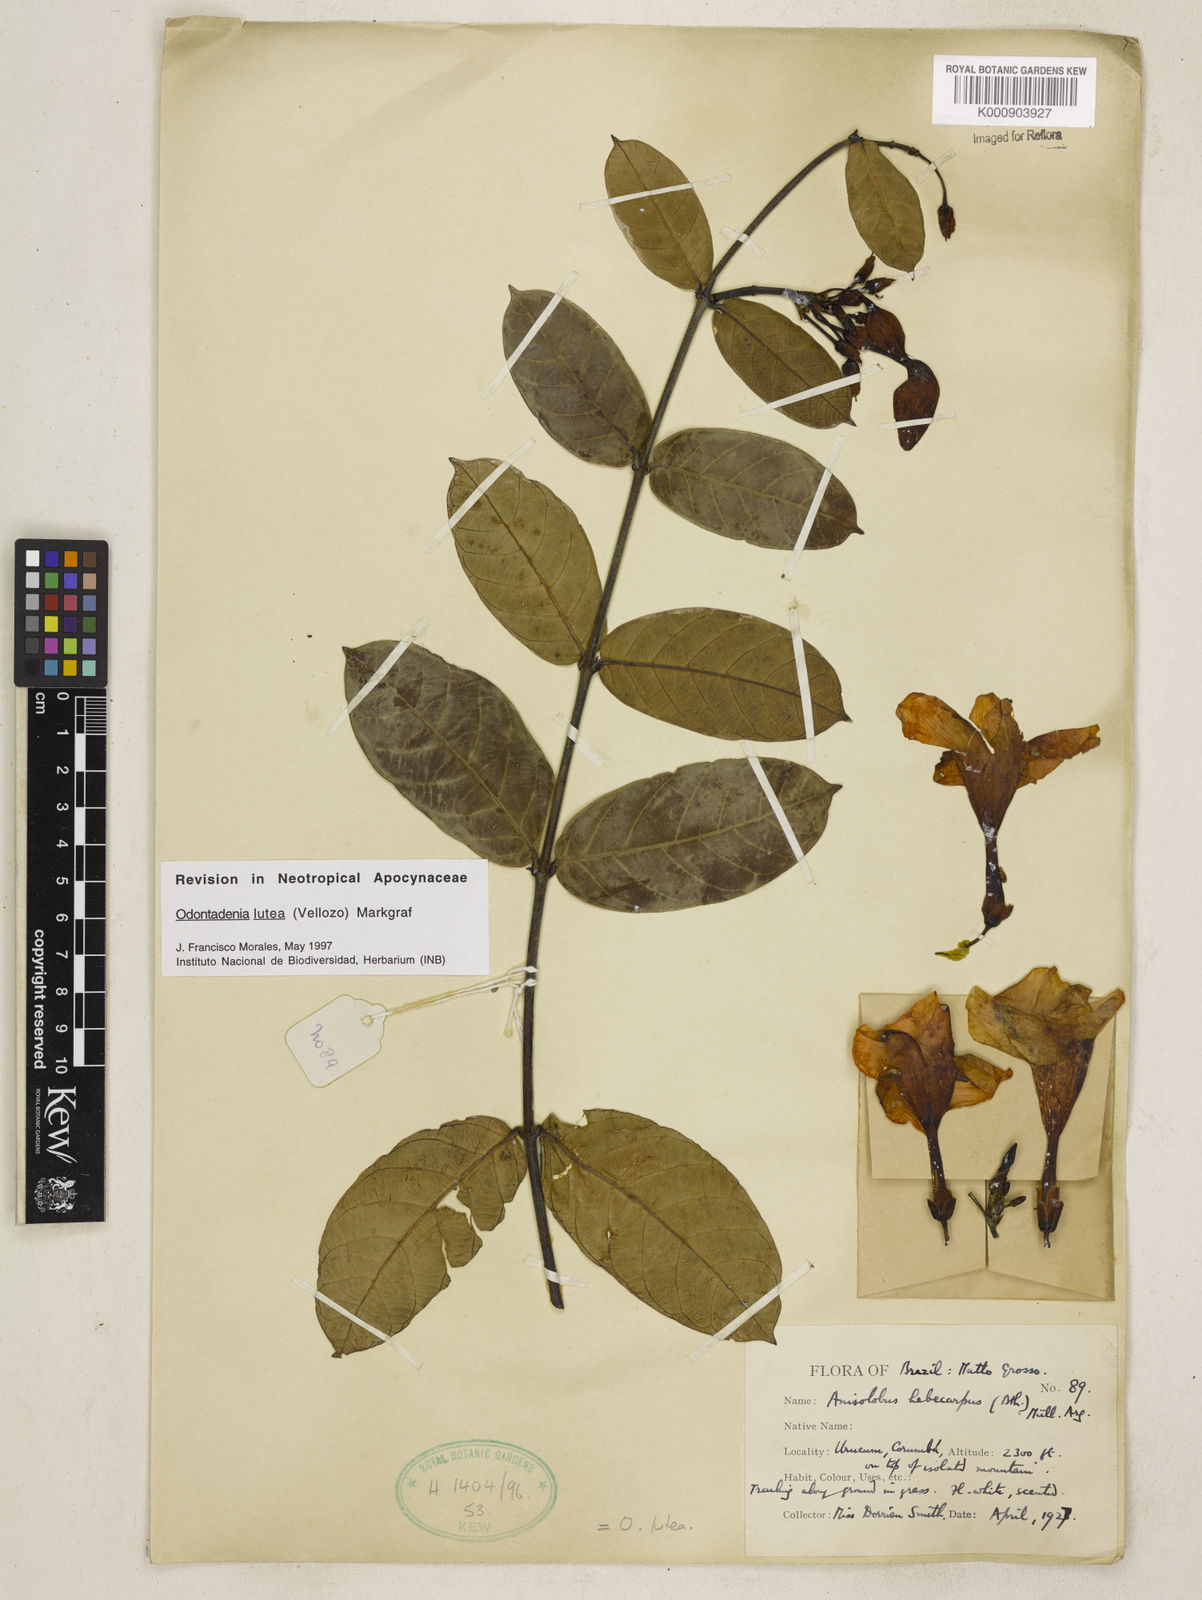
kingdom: Plantae
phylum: Tracheophyta
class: Magnoliopsida
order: Gentianales
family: Apocynaceae
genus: Odontadenia
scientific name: Odontadenia lutea
